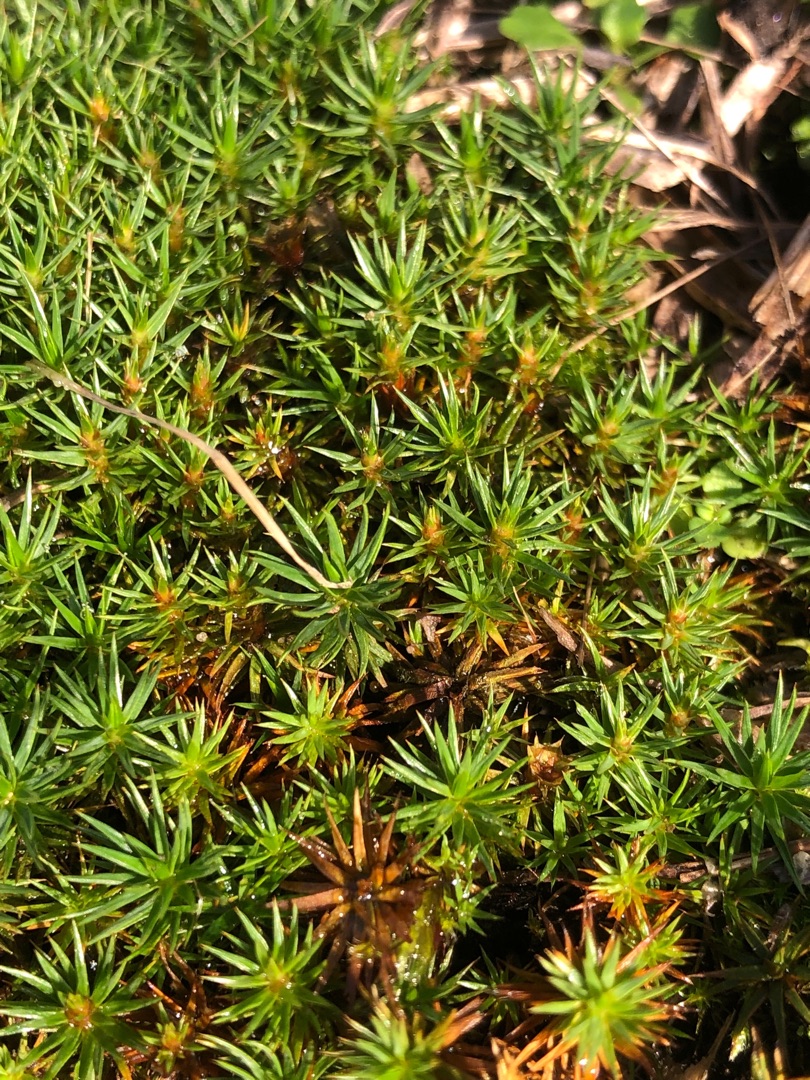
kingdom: Plantae
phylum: Bryophyta
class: Polytrichopsida
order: Polytrichales
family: Polytrichaceae
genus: Polytrichum
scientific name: Polytrichum juniperinum
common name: Ene-jomfruhår
